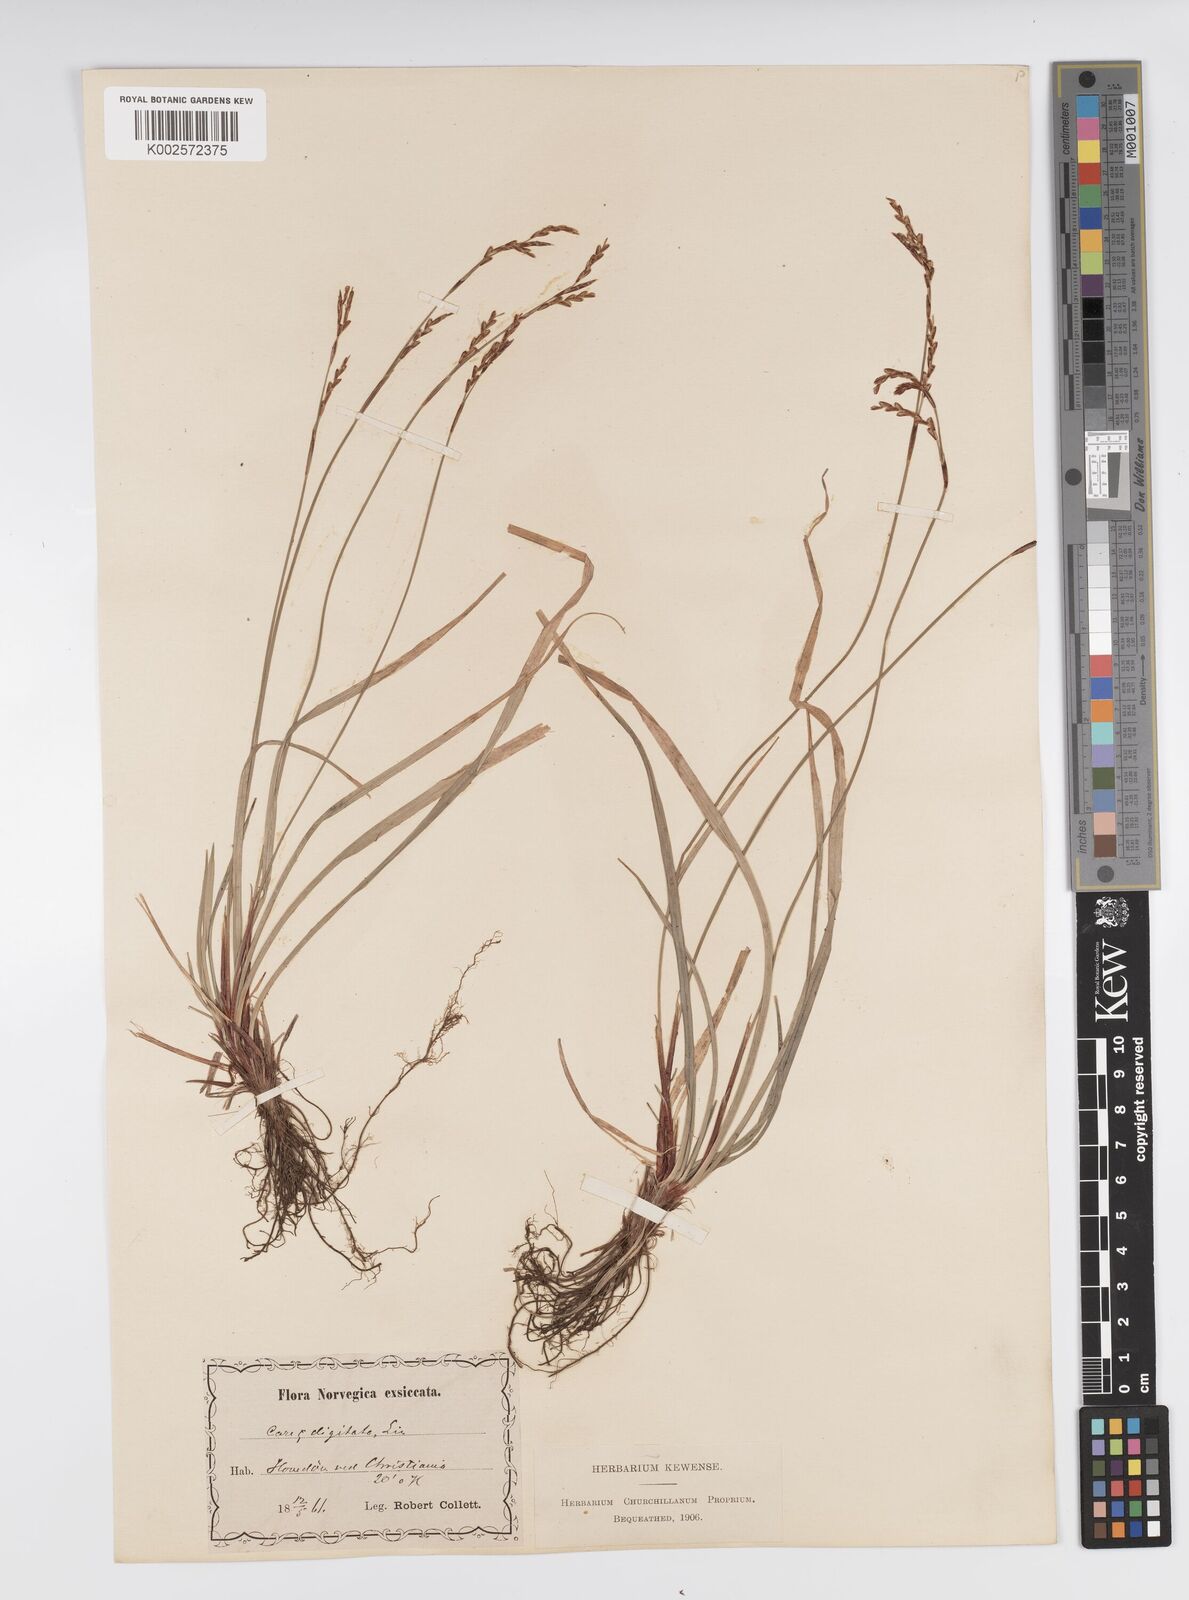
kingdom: Plantae
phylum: Tracheophyta
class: Liliopsida
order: Poales
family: Cyperaceae
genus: Carex
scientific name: Carex digitata
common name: Fingered sedge
